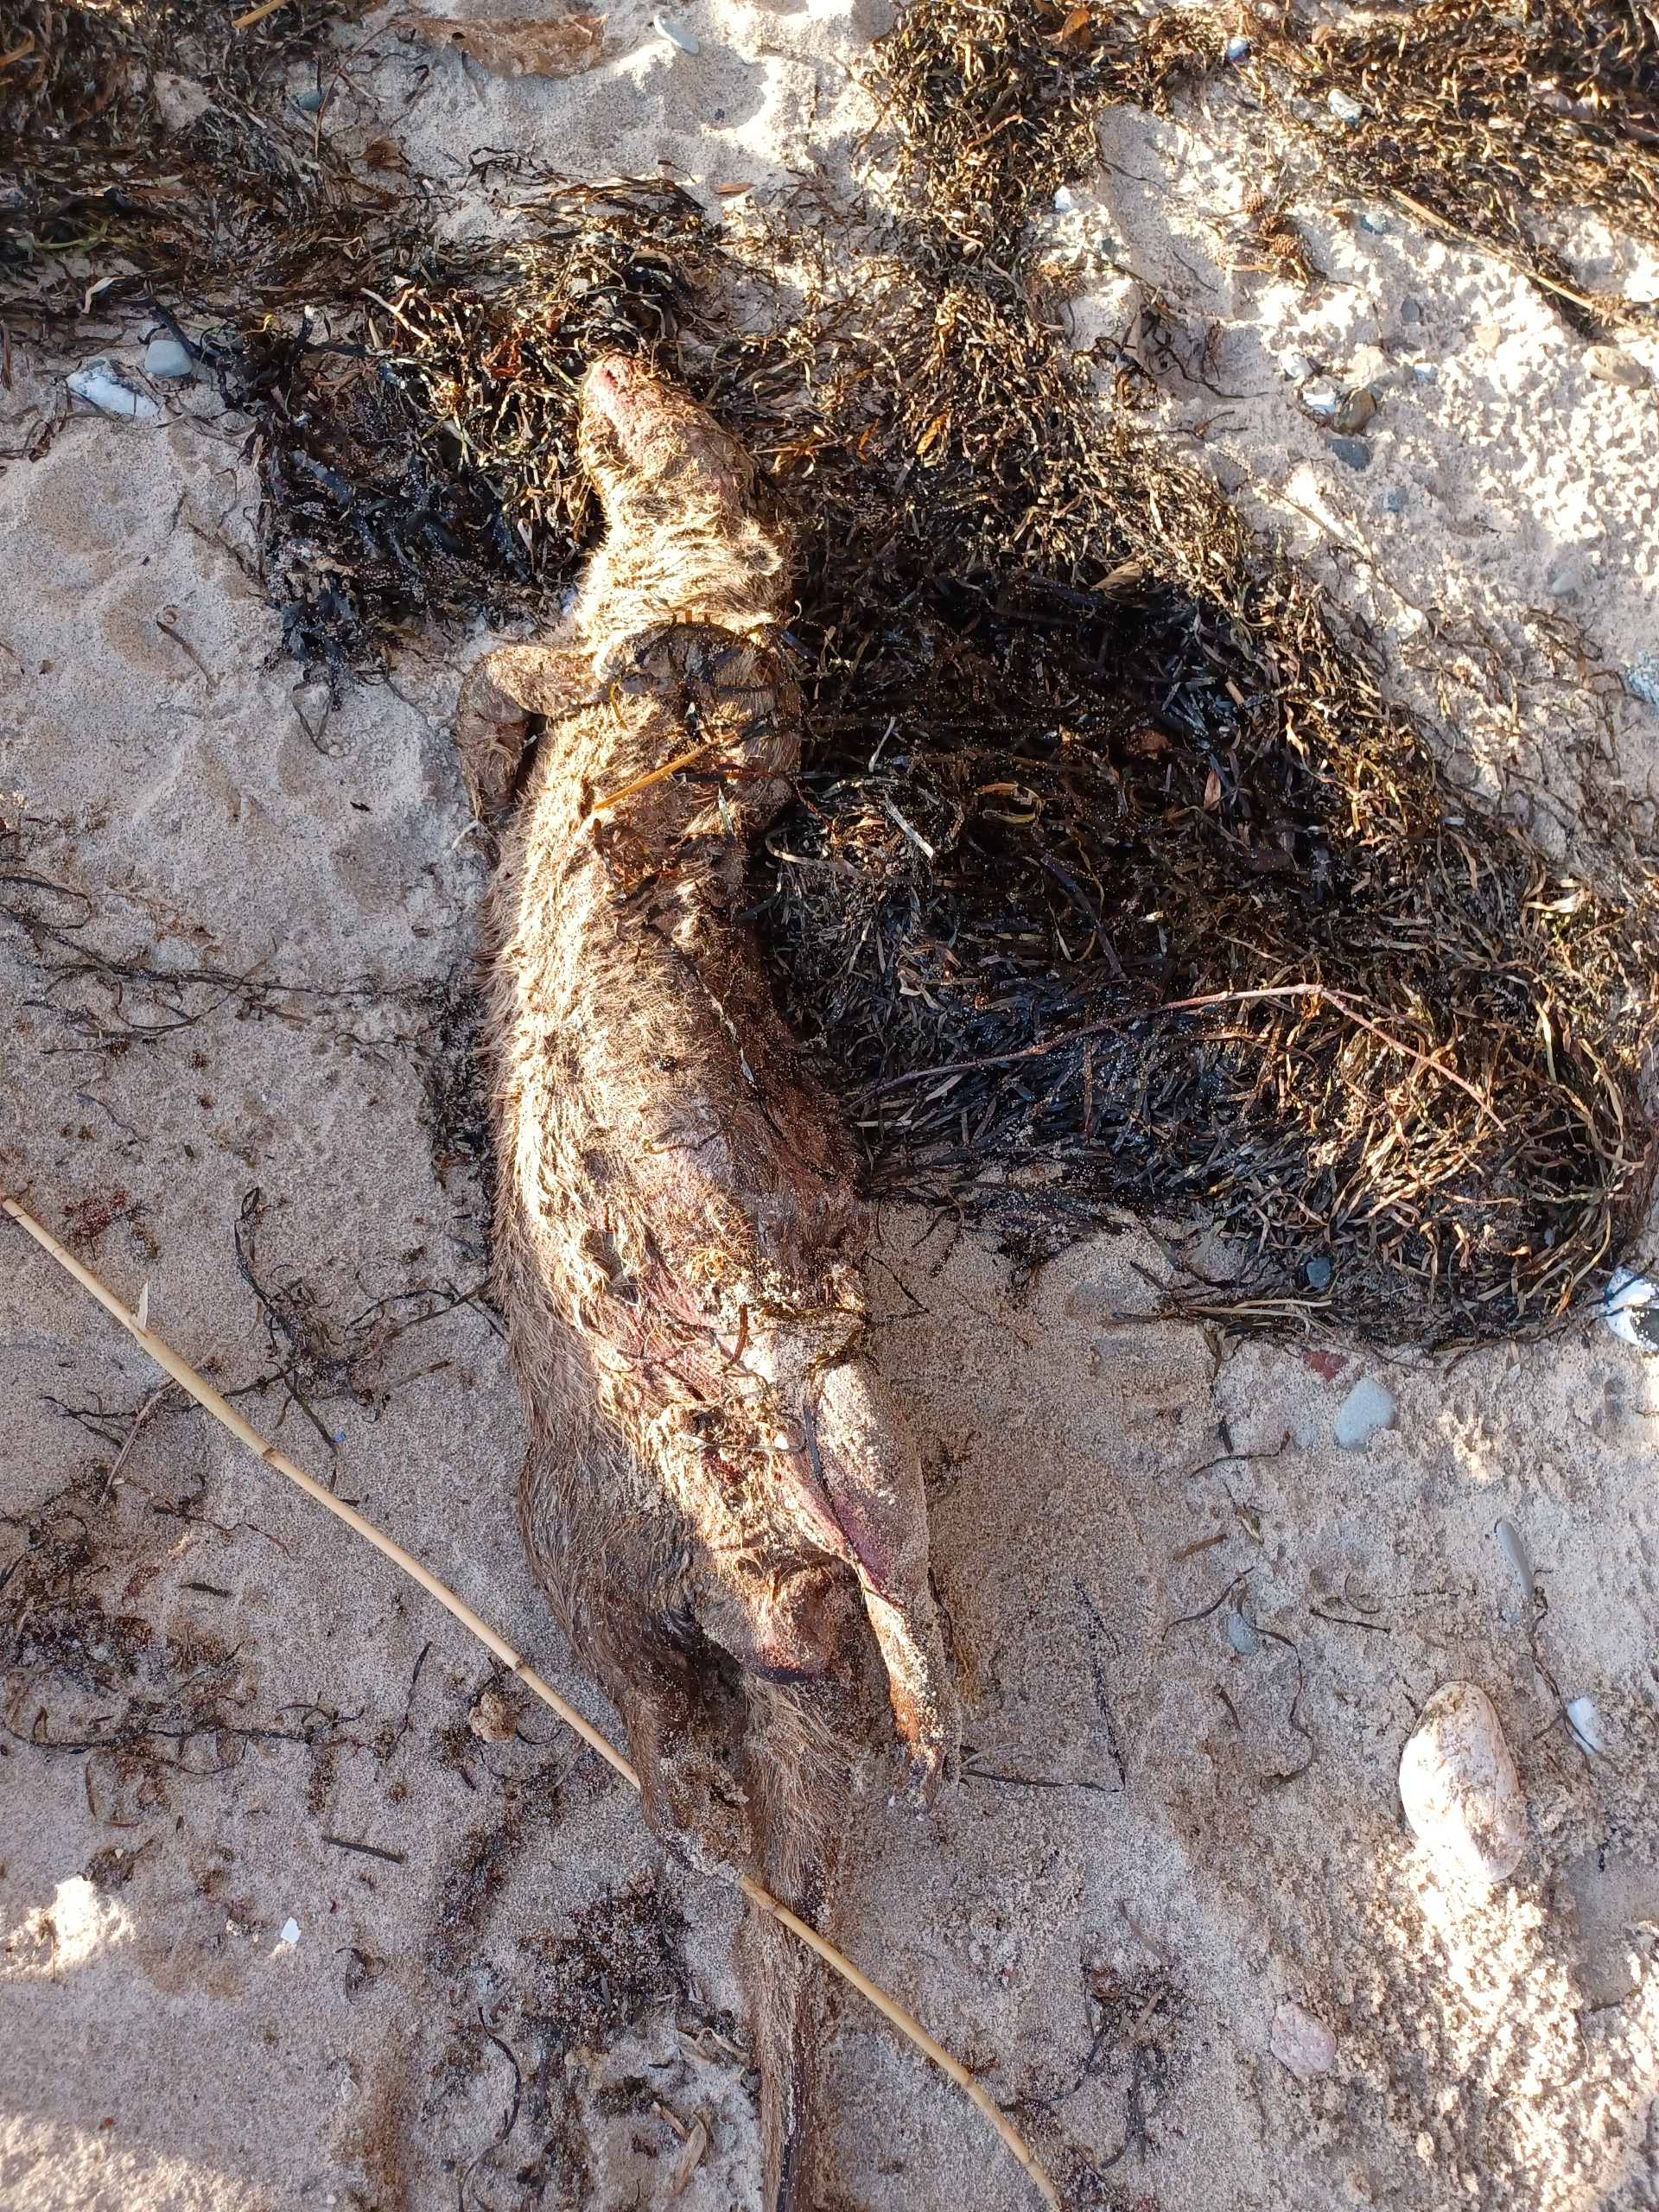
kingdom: Animalia
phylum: Chordata
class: Mammalia
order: Carnivora
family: Mustelidae
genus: Lutra
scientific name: Lutra lutra
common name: Odder
